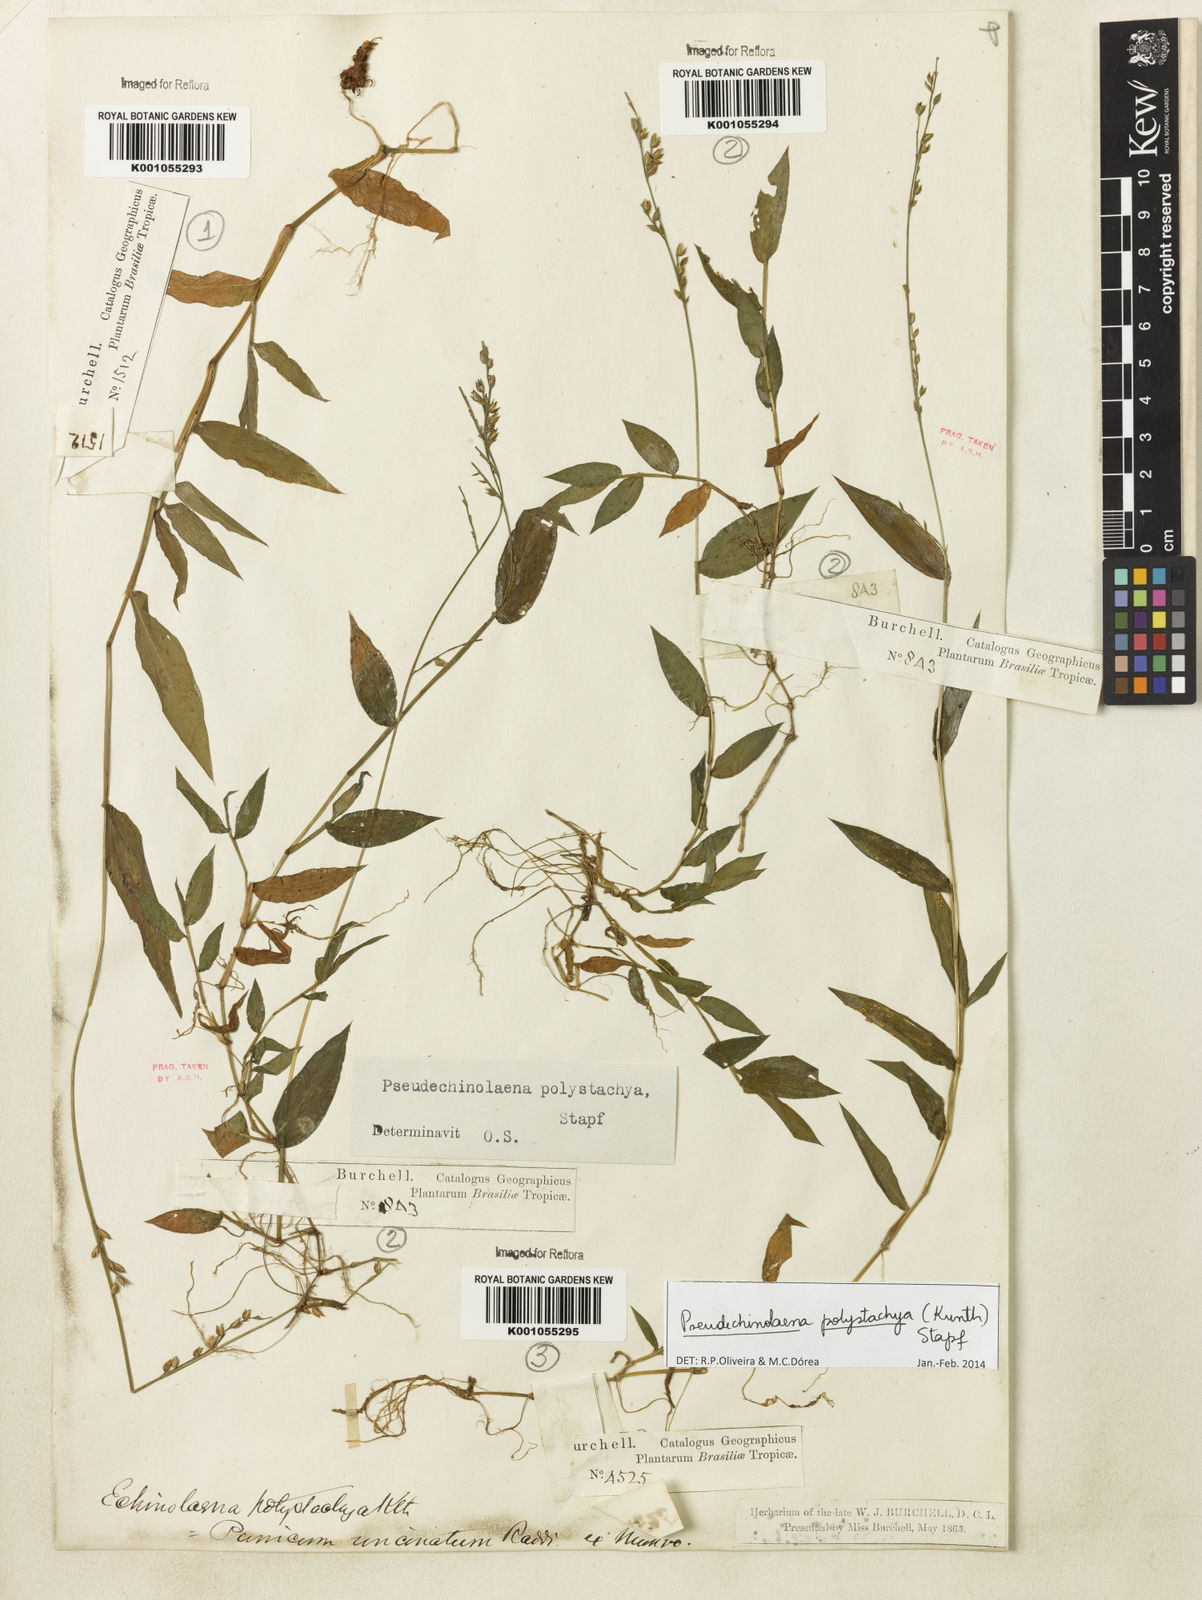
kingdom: Plantae
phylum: Tracheophyta
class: Liliopsida
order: Poales
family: Poaceae
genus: Pseudechinolaena
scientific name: Pseudechinolaena polystachya
